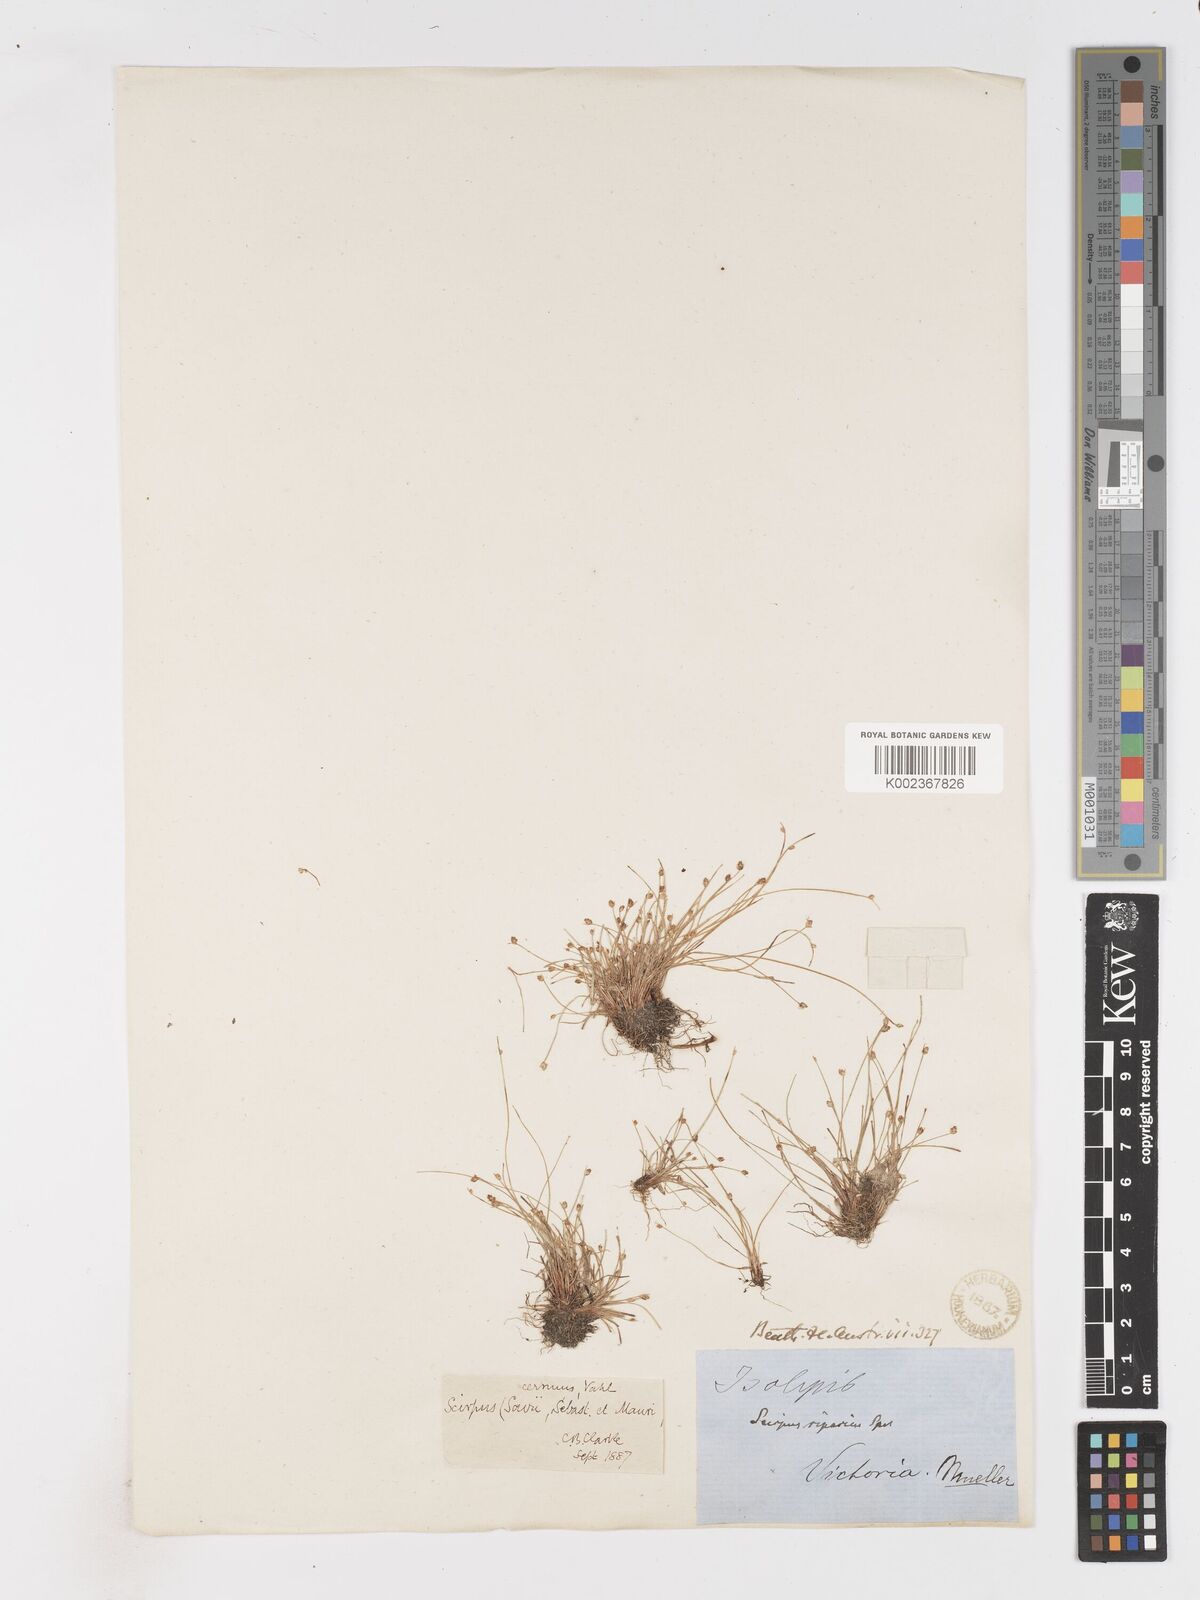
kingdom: Plantae
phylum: Tracheophyta
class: Liliopsida
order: Poales
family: Cyperaceae
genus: Isolepis
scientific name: Isolepis cernua
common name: Slender club-rush
